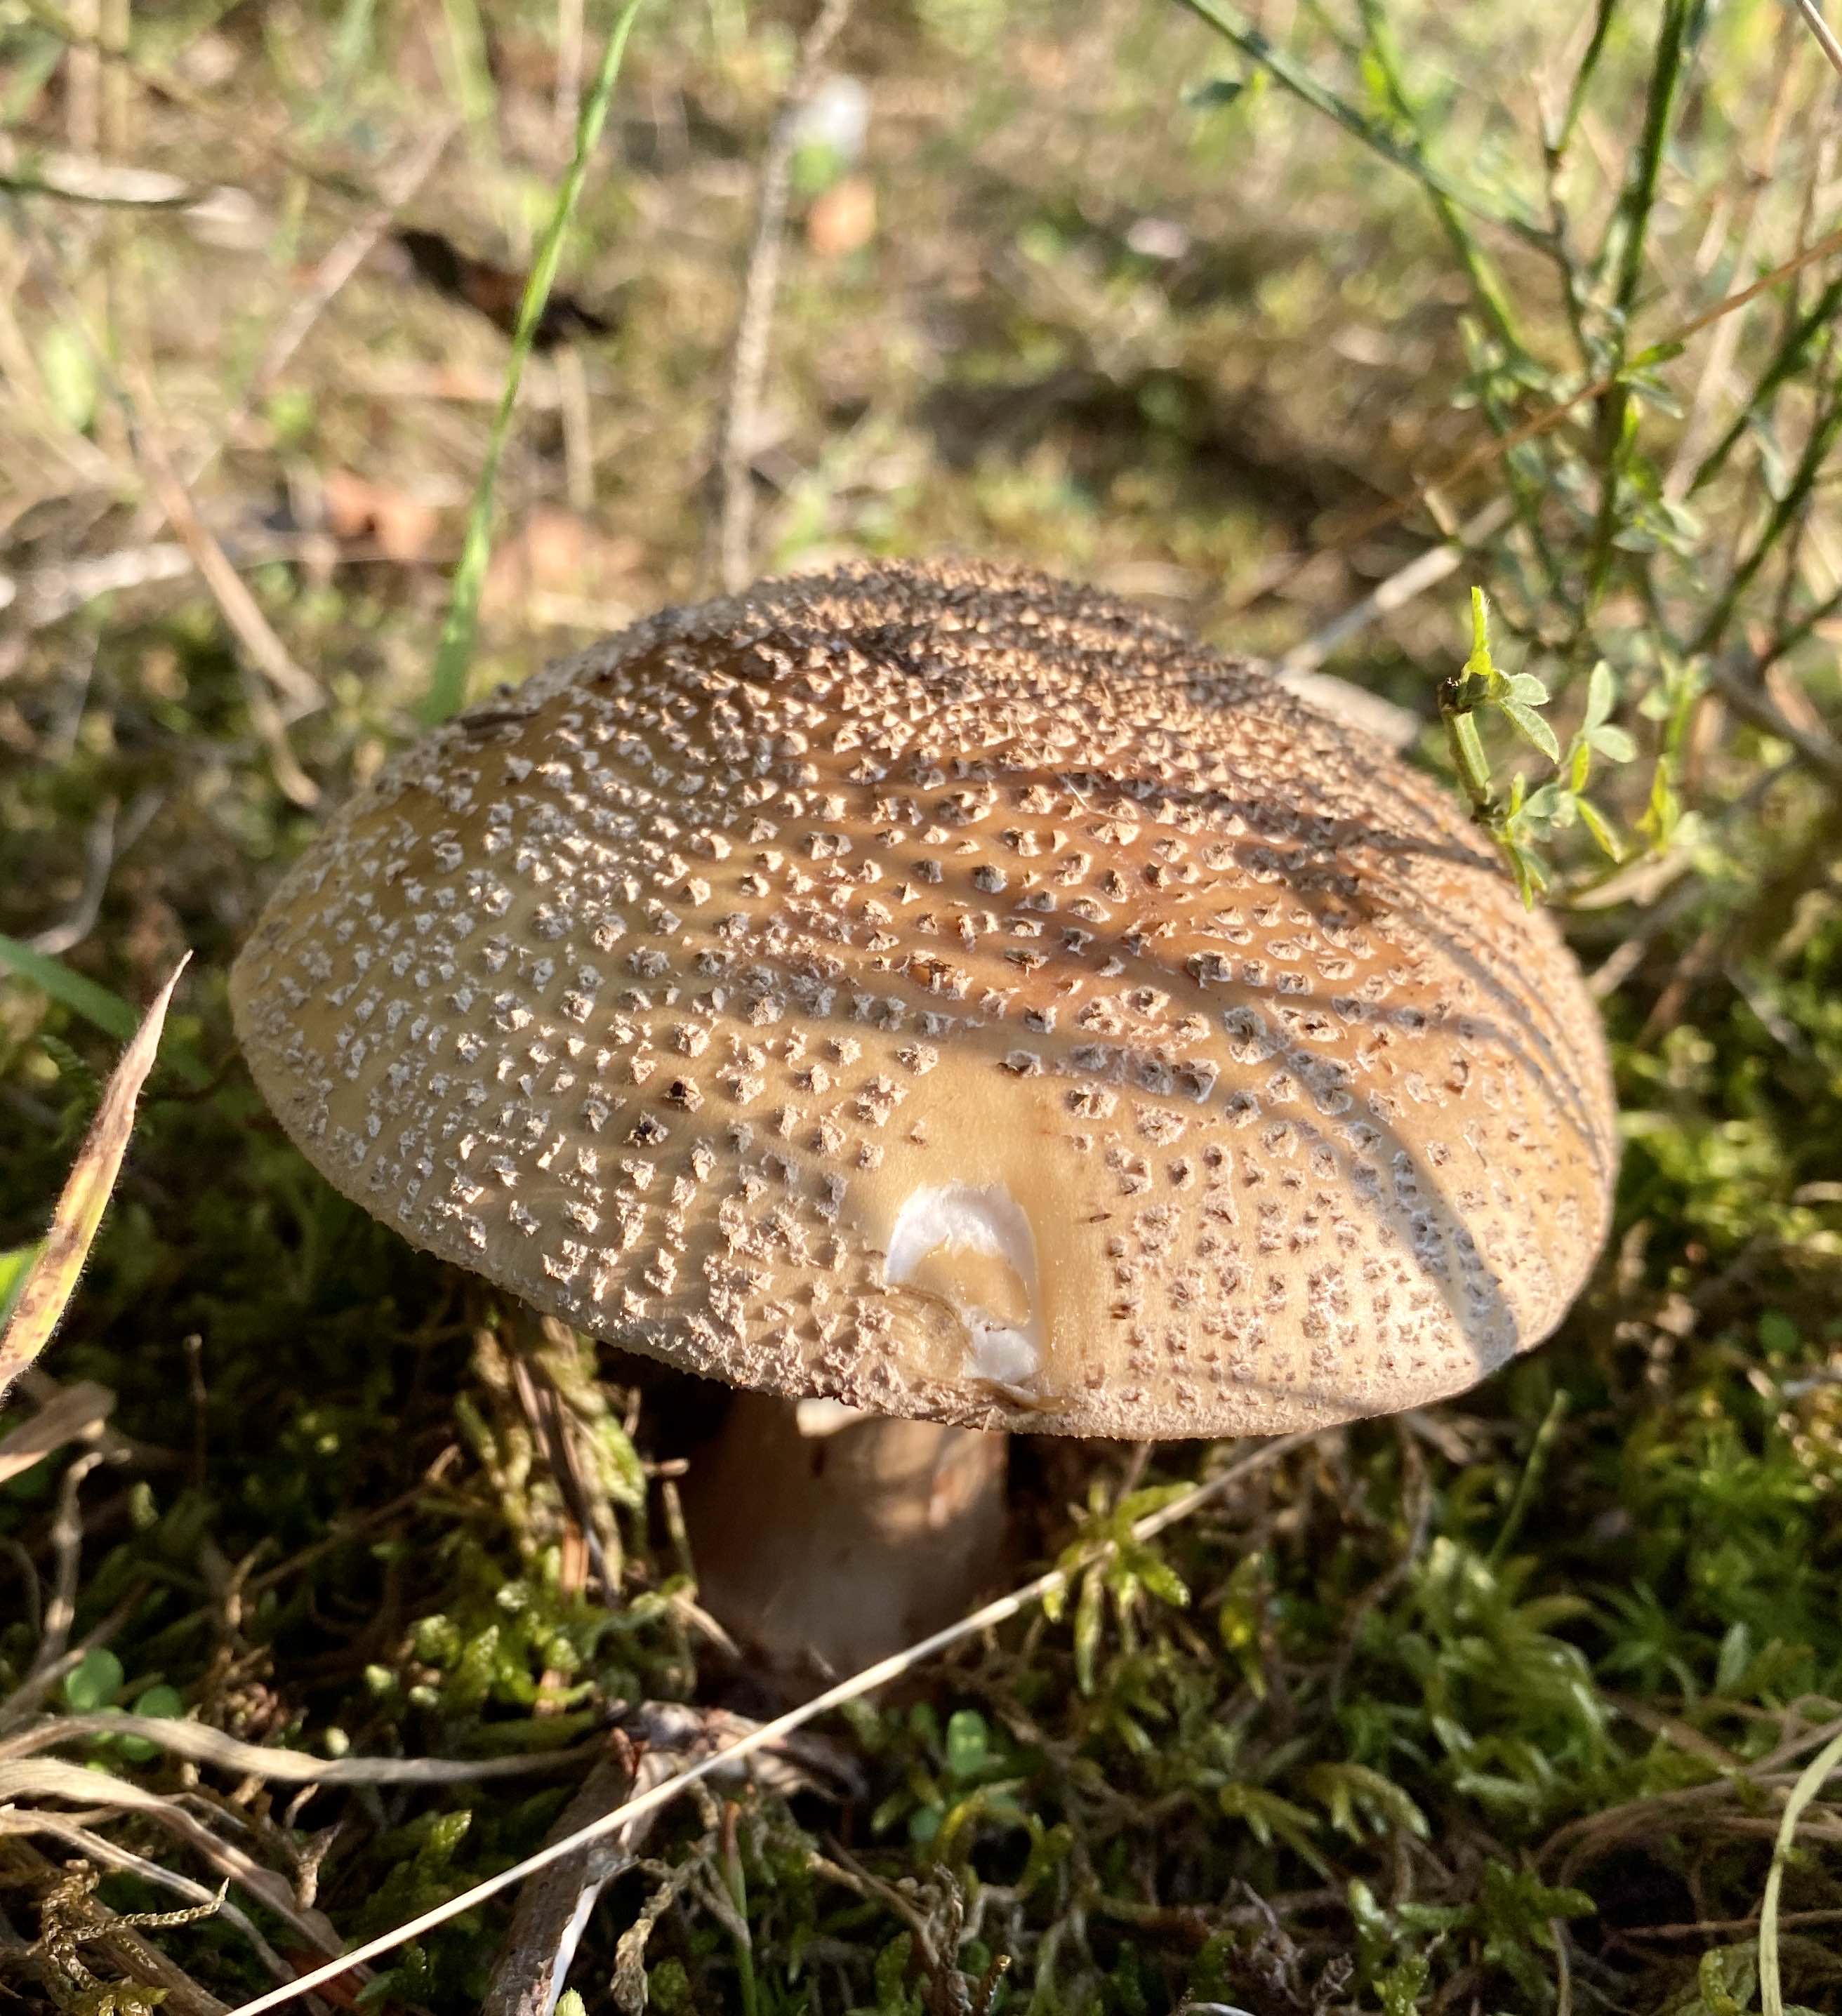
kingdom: Fungi
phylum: Basidiomycota
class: Agaricomycetes
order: Agaricales
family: Amanitaceae
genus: Amanita
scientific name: Amanita rubescens
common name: rødmende fluesvamp
